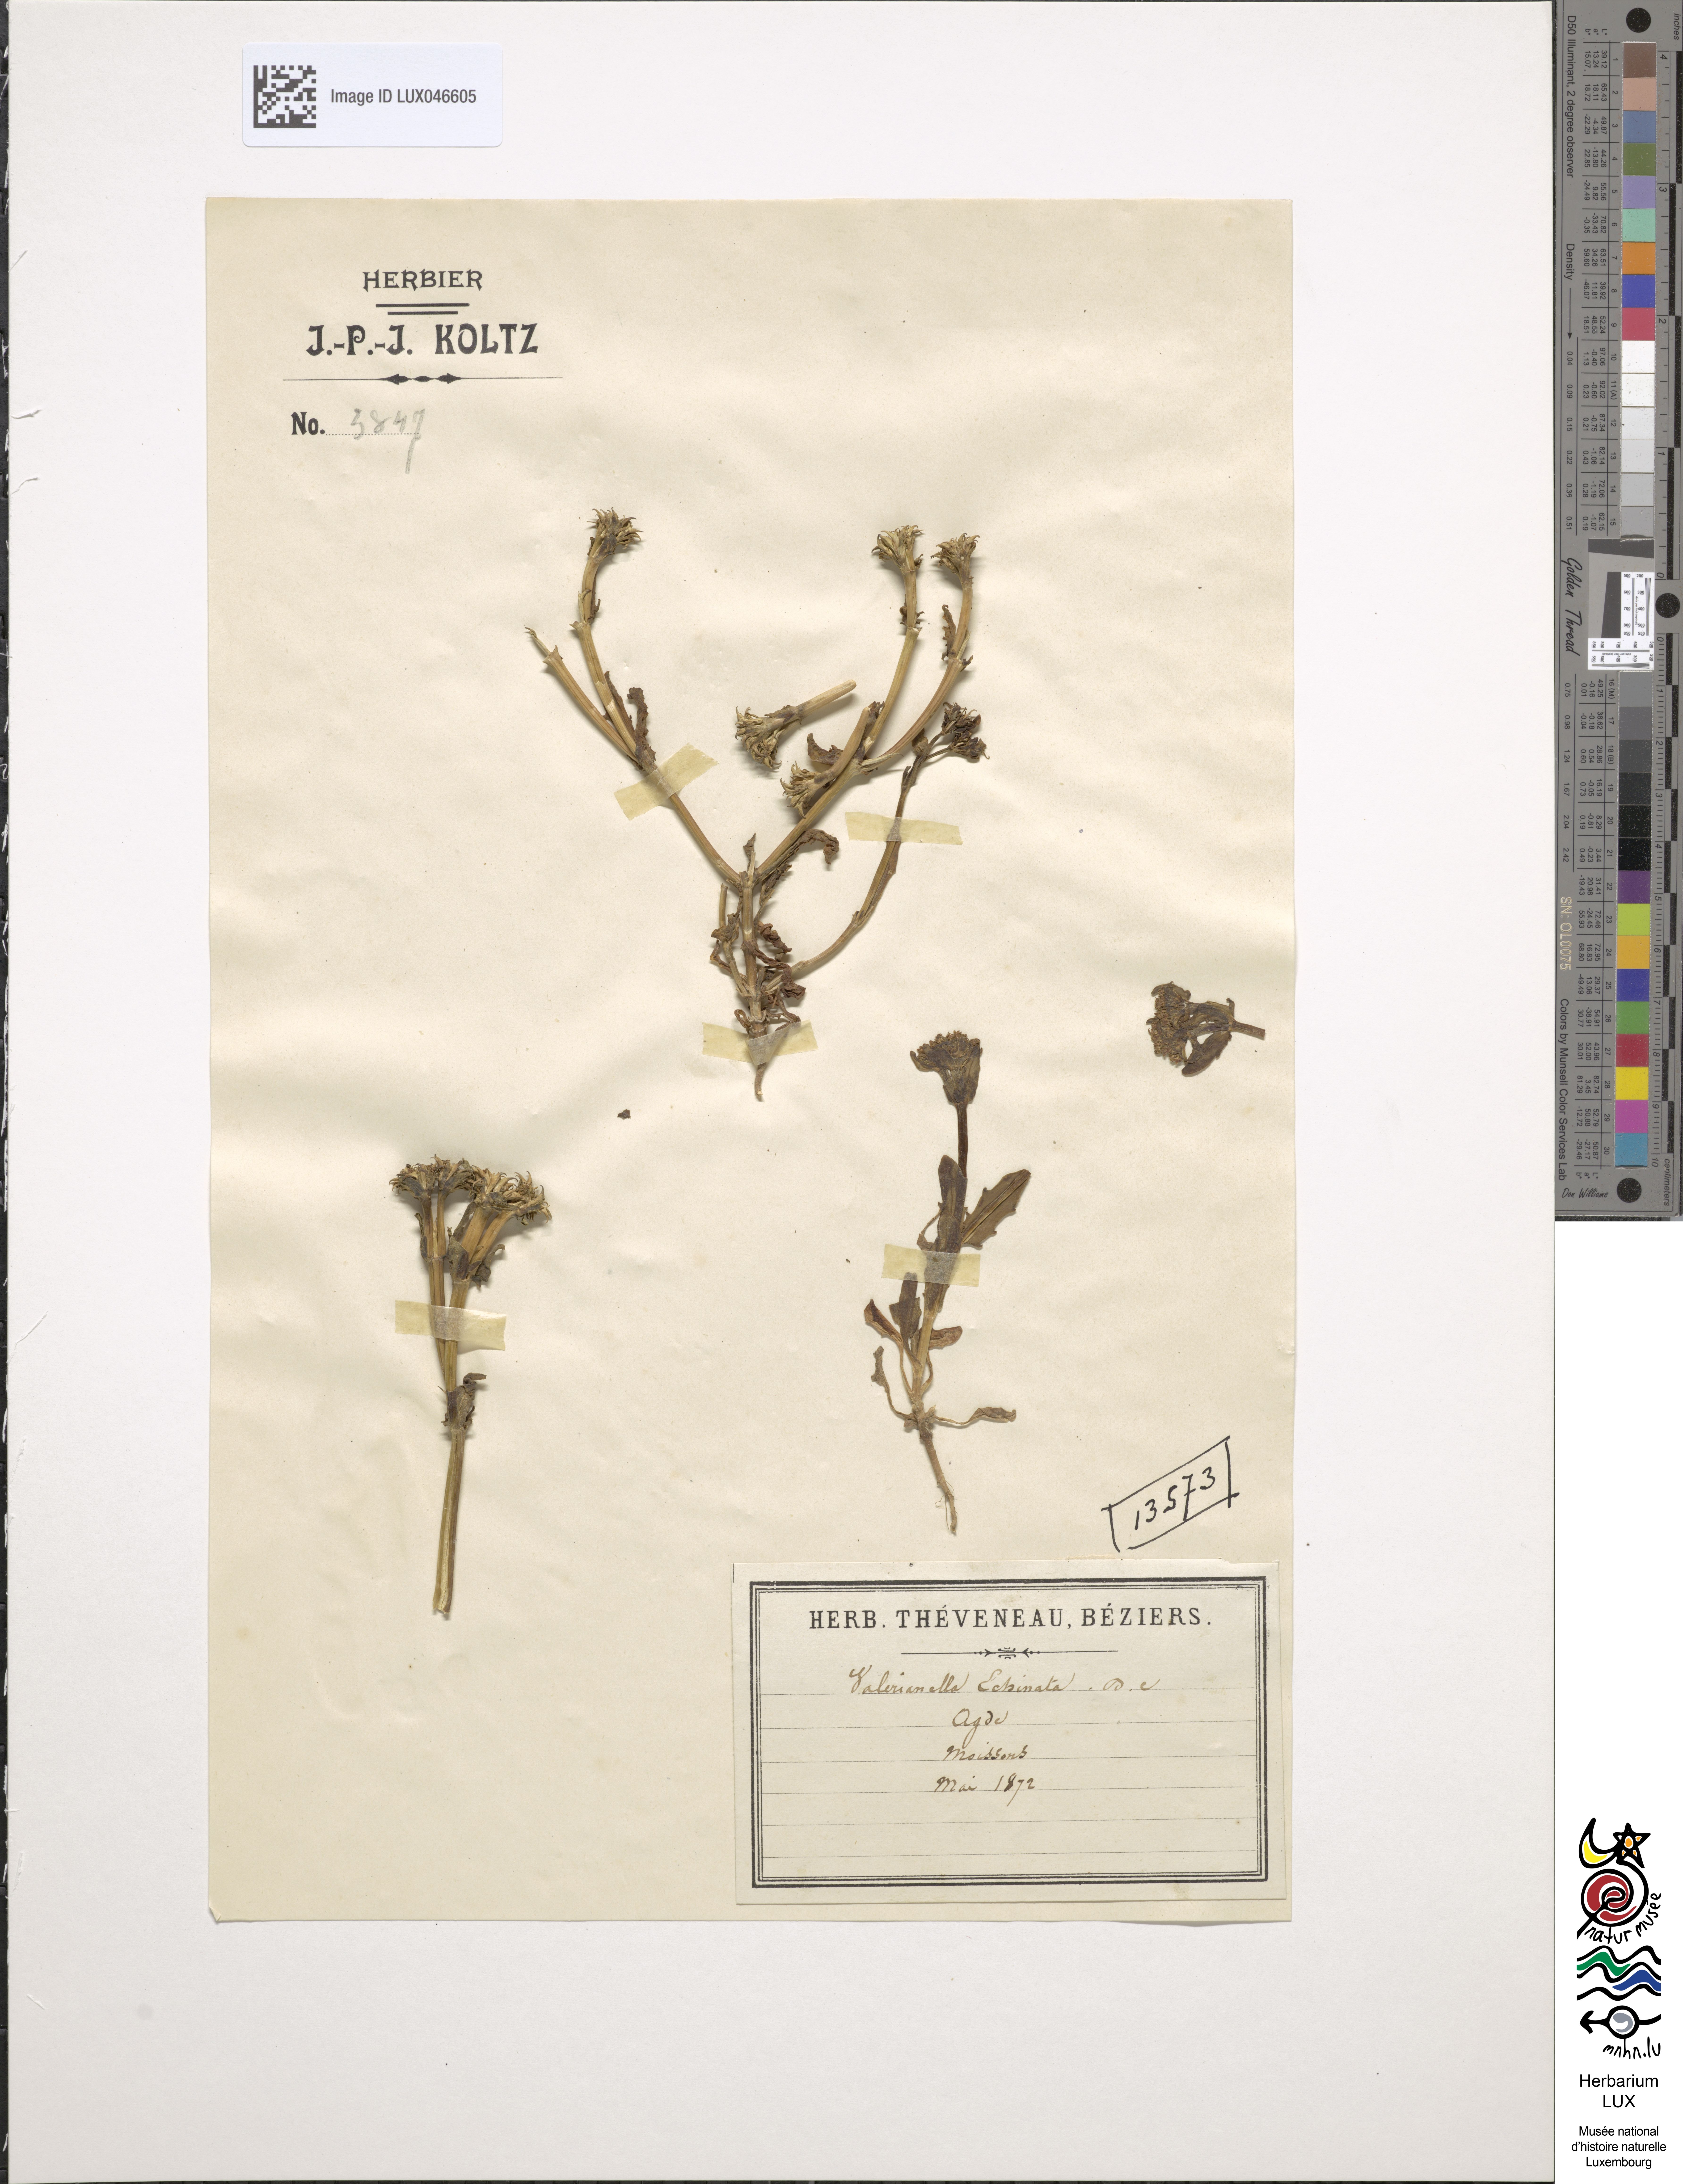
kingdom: Plantae
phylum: Tracheophyta
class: Magnoliopsida
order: Dipsacales
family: Caprifoliaceae
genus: Valerianella
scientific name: Valerianella echinata
